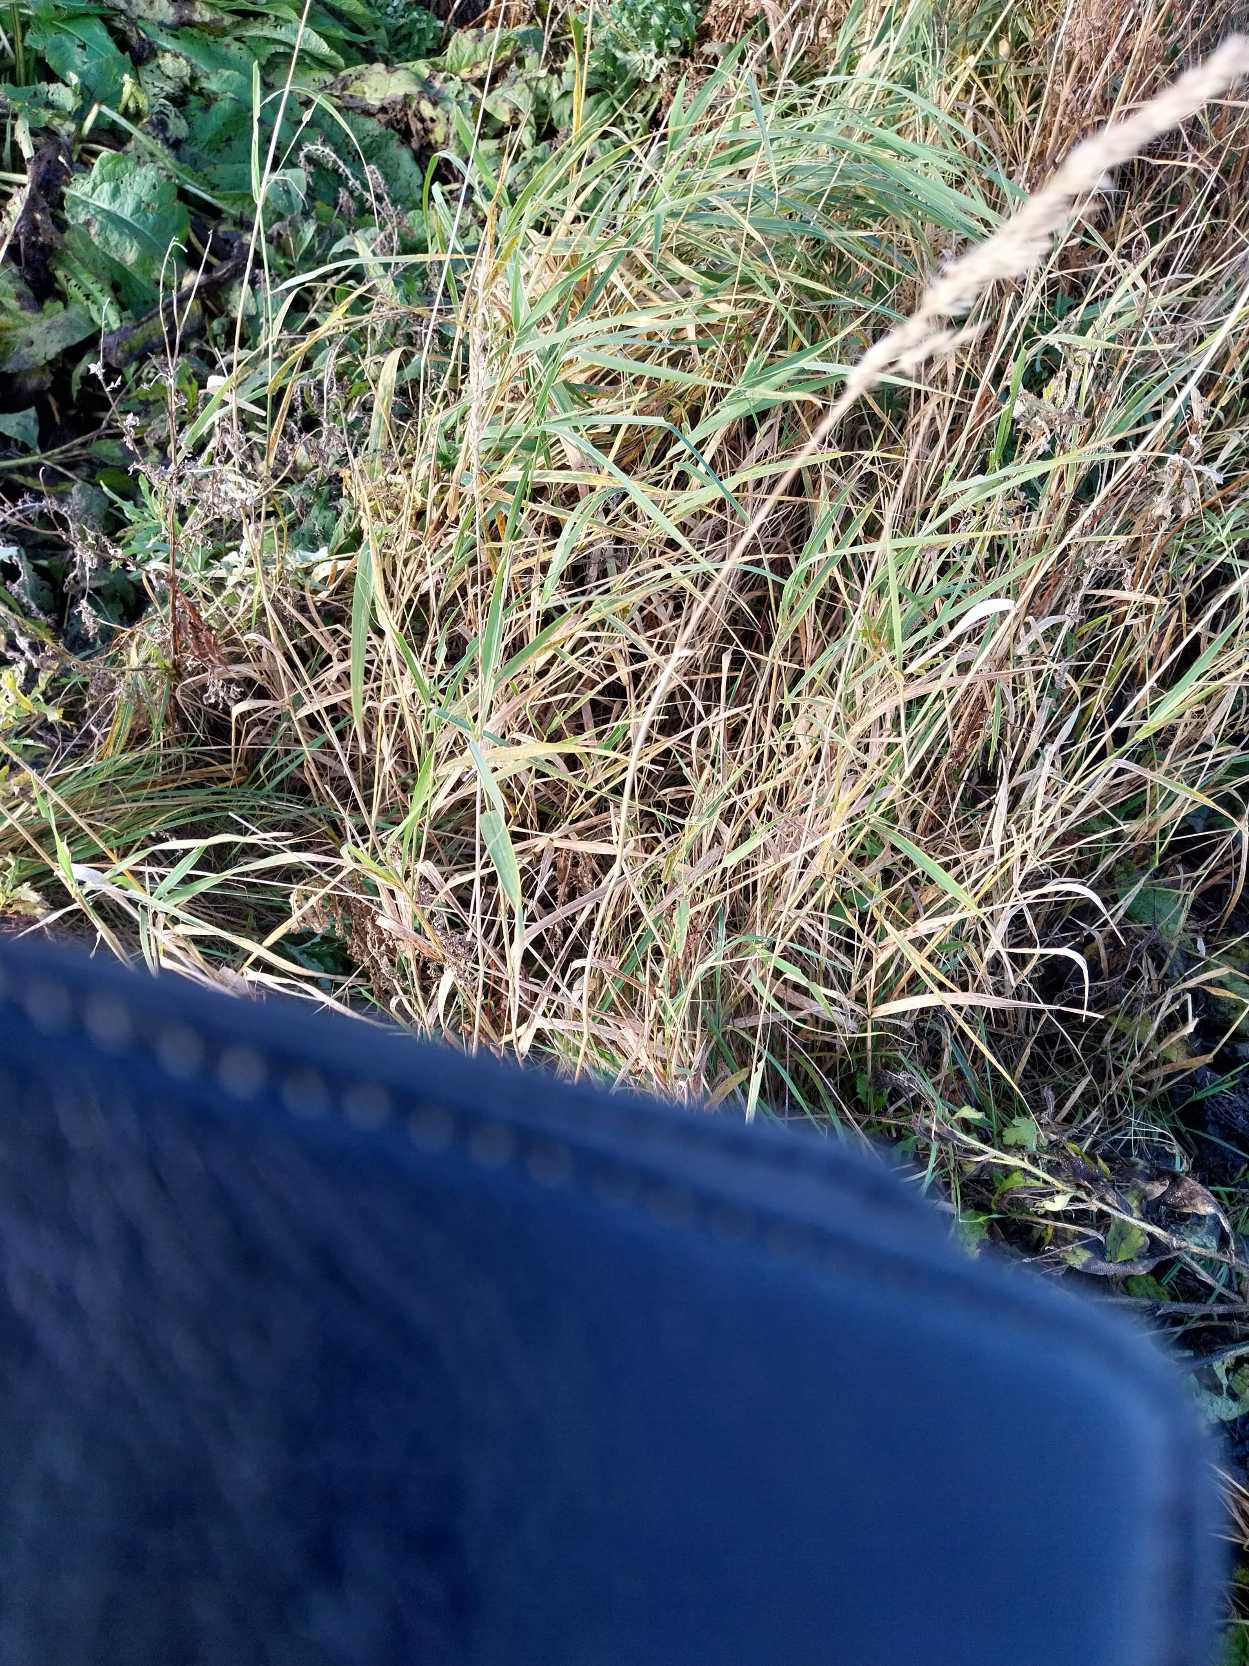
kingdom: Plantae
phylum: Tracheophyta
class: Liliopsida
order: Poales
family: Poaceae
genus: Phalaris
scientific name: Phalaris arundinacea
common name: Rørgræs
